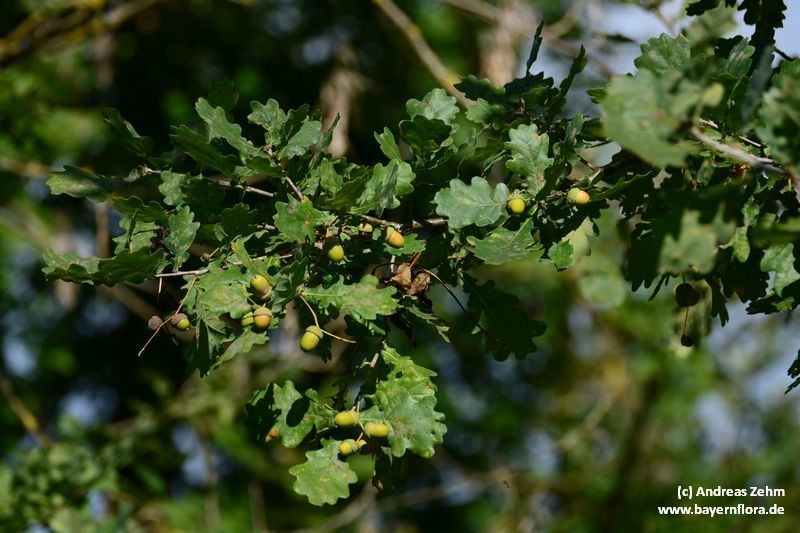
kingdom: Plantae
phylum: Tracheophyta
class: Magnoliopsida
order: Fagales
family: Fagaceae
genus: Quercus
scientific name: Quercus robur
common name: Pedunculate oak
